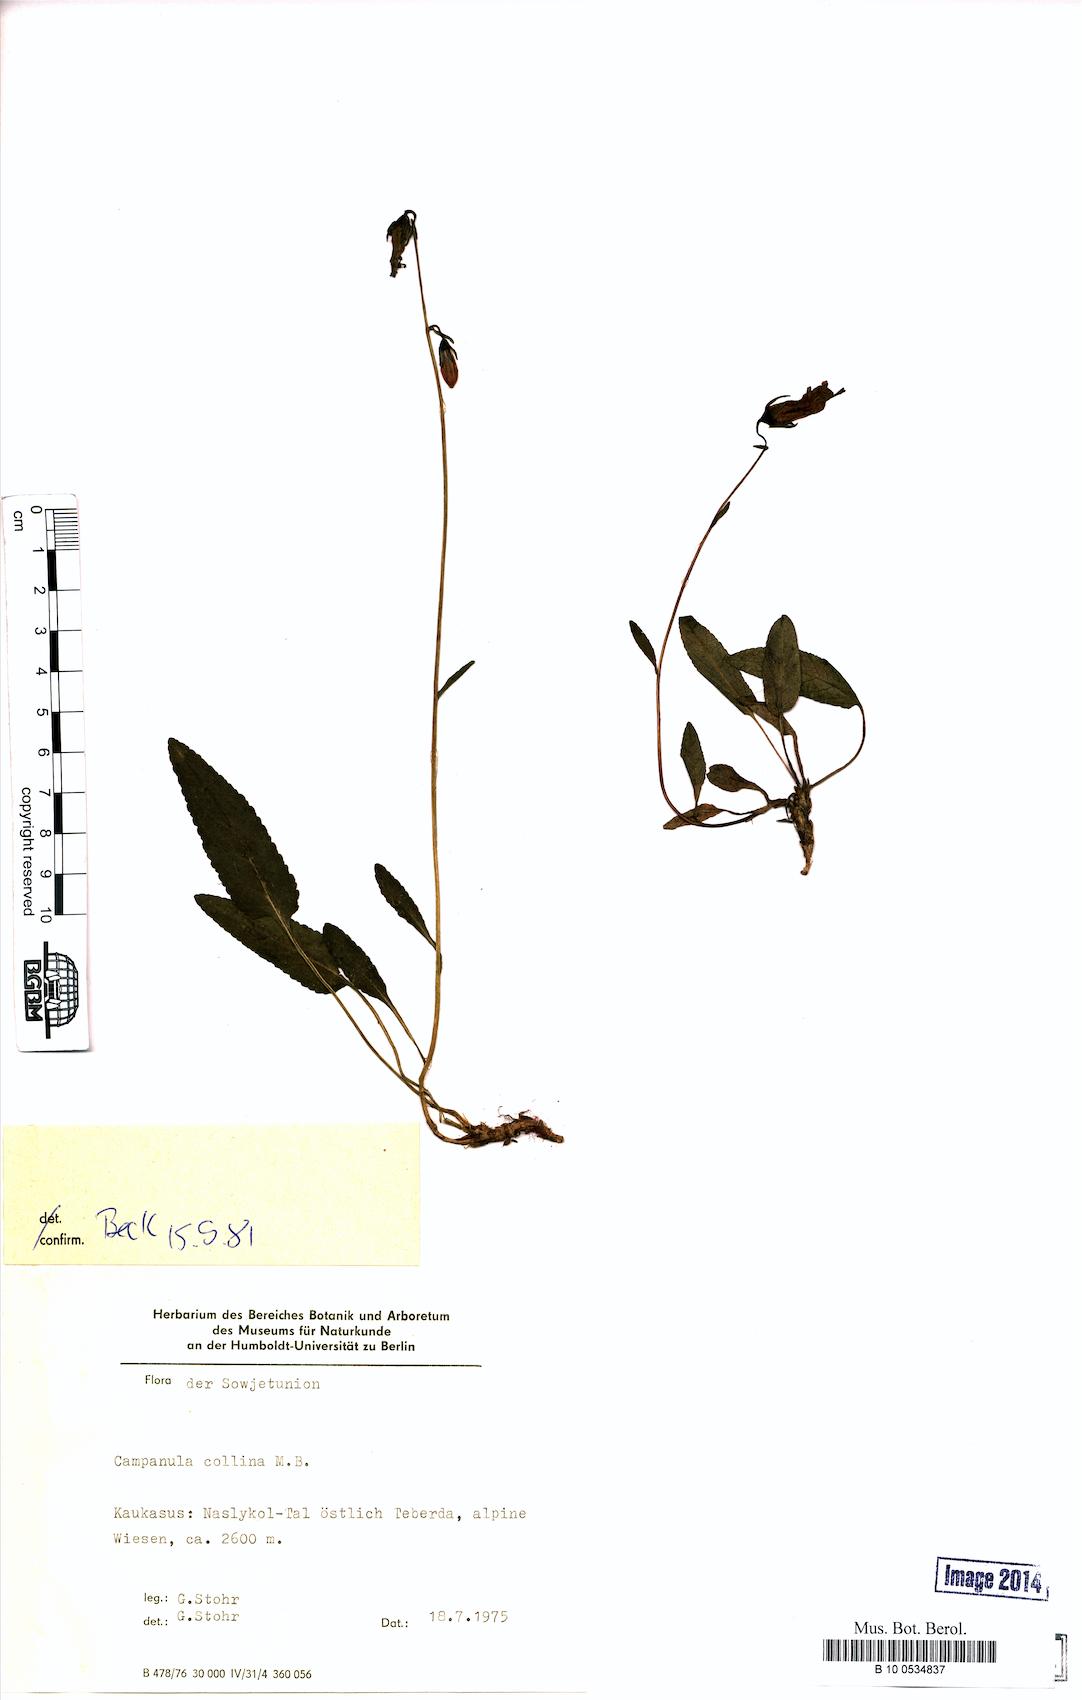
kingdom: Plantae
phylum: Tracheophyta
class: Magnoliopsida
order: Asterales
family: Campanulaceae
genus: Campanula
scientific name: Campanula collina
